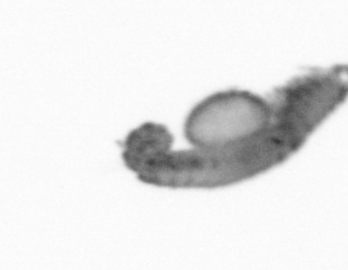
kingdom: Animalia
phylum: Annelida
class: Polychaeta
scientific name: Polychaeta
